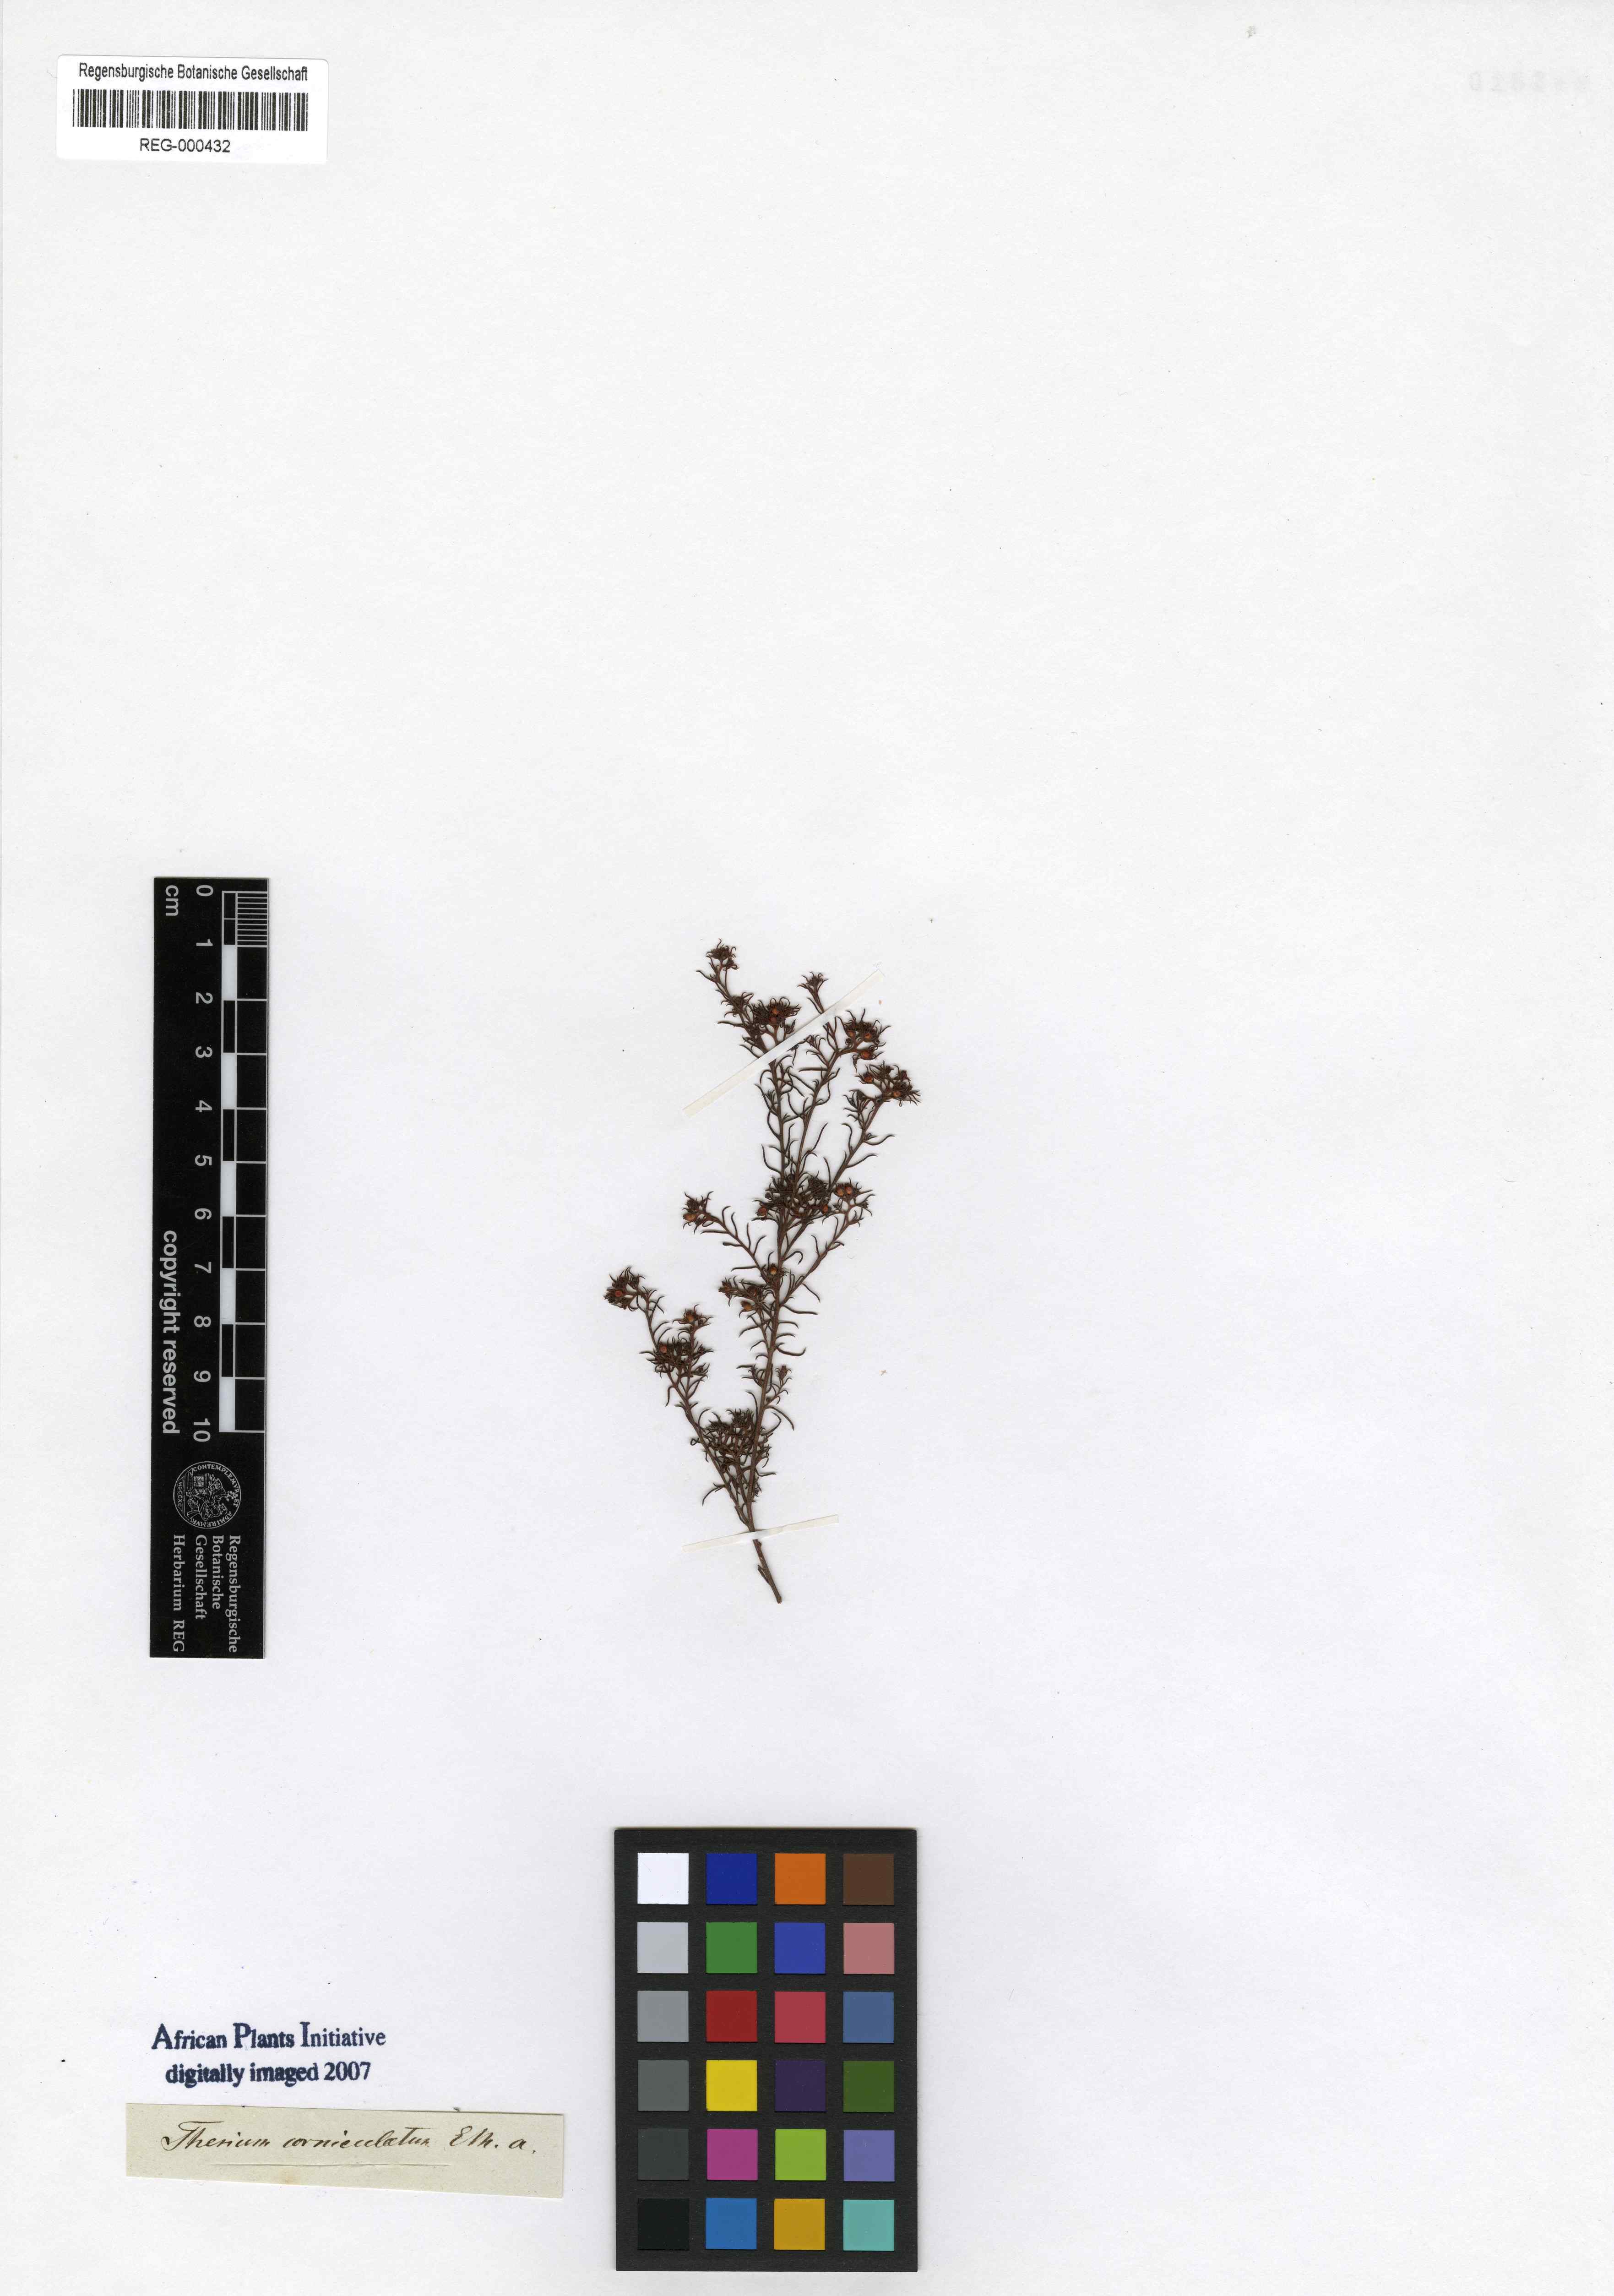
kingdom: Plantae
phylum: Tracheophyta
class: Magnoliopsida
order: Santalales
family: Thesiaceae
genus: Thesium
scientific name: Thesium squarrosum
